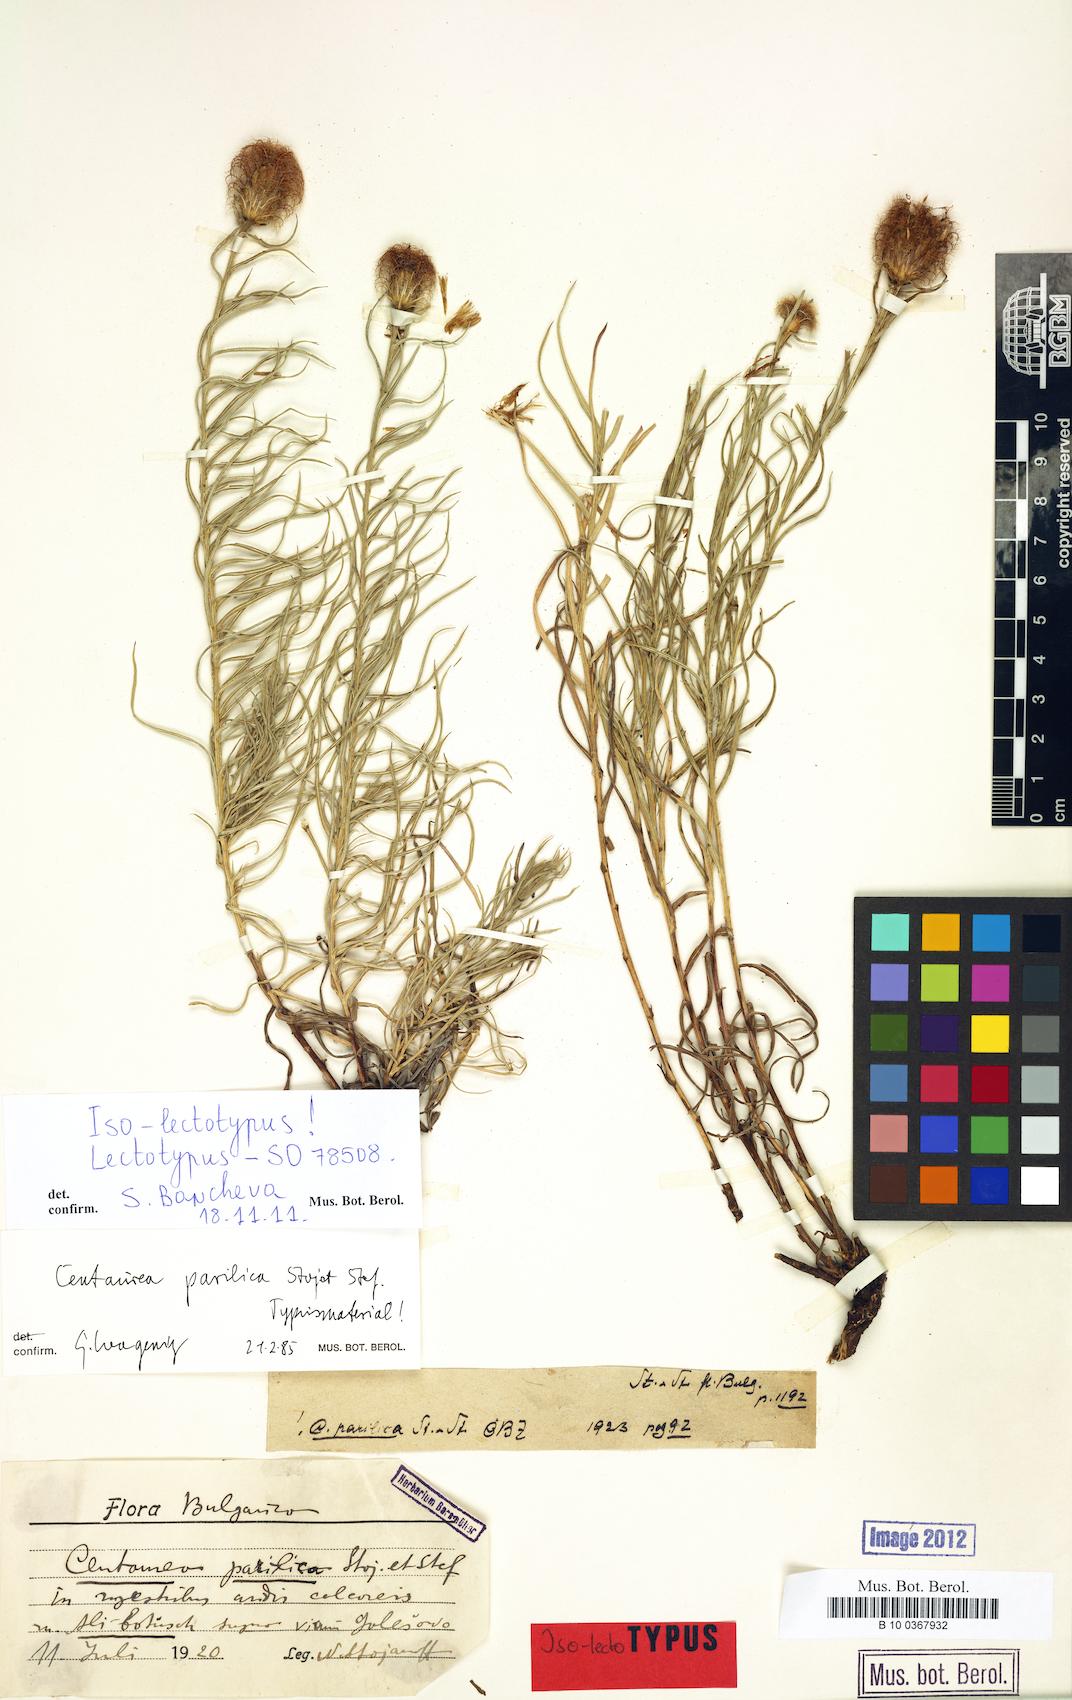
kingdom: Plantae
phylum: Tracheophyta
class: Magnoliopsida
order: Asterales
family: Asteraceae
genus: Centaurea
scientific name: Centaurea parilica
